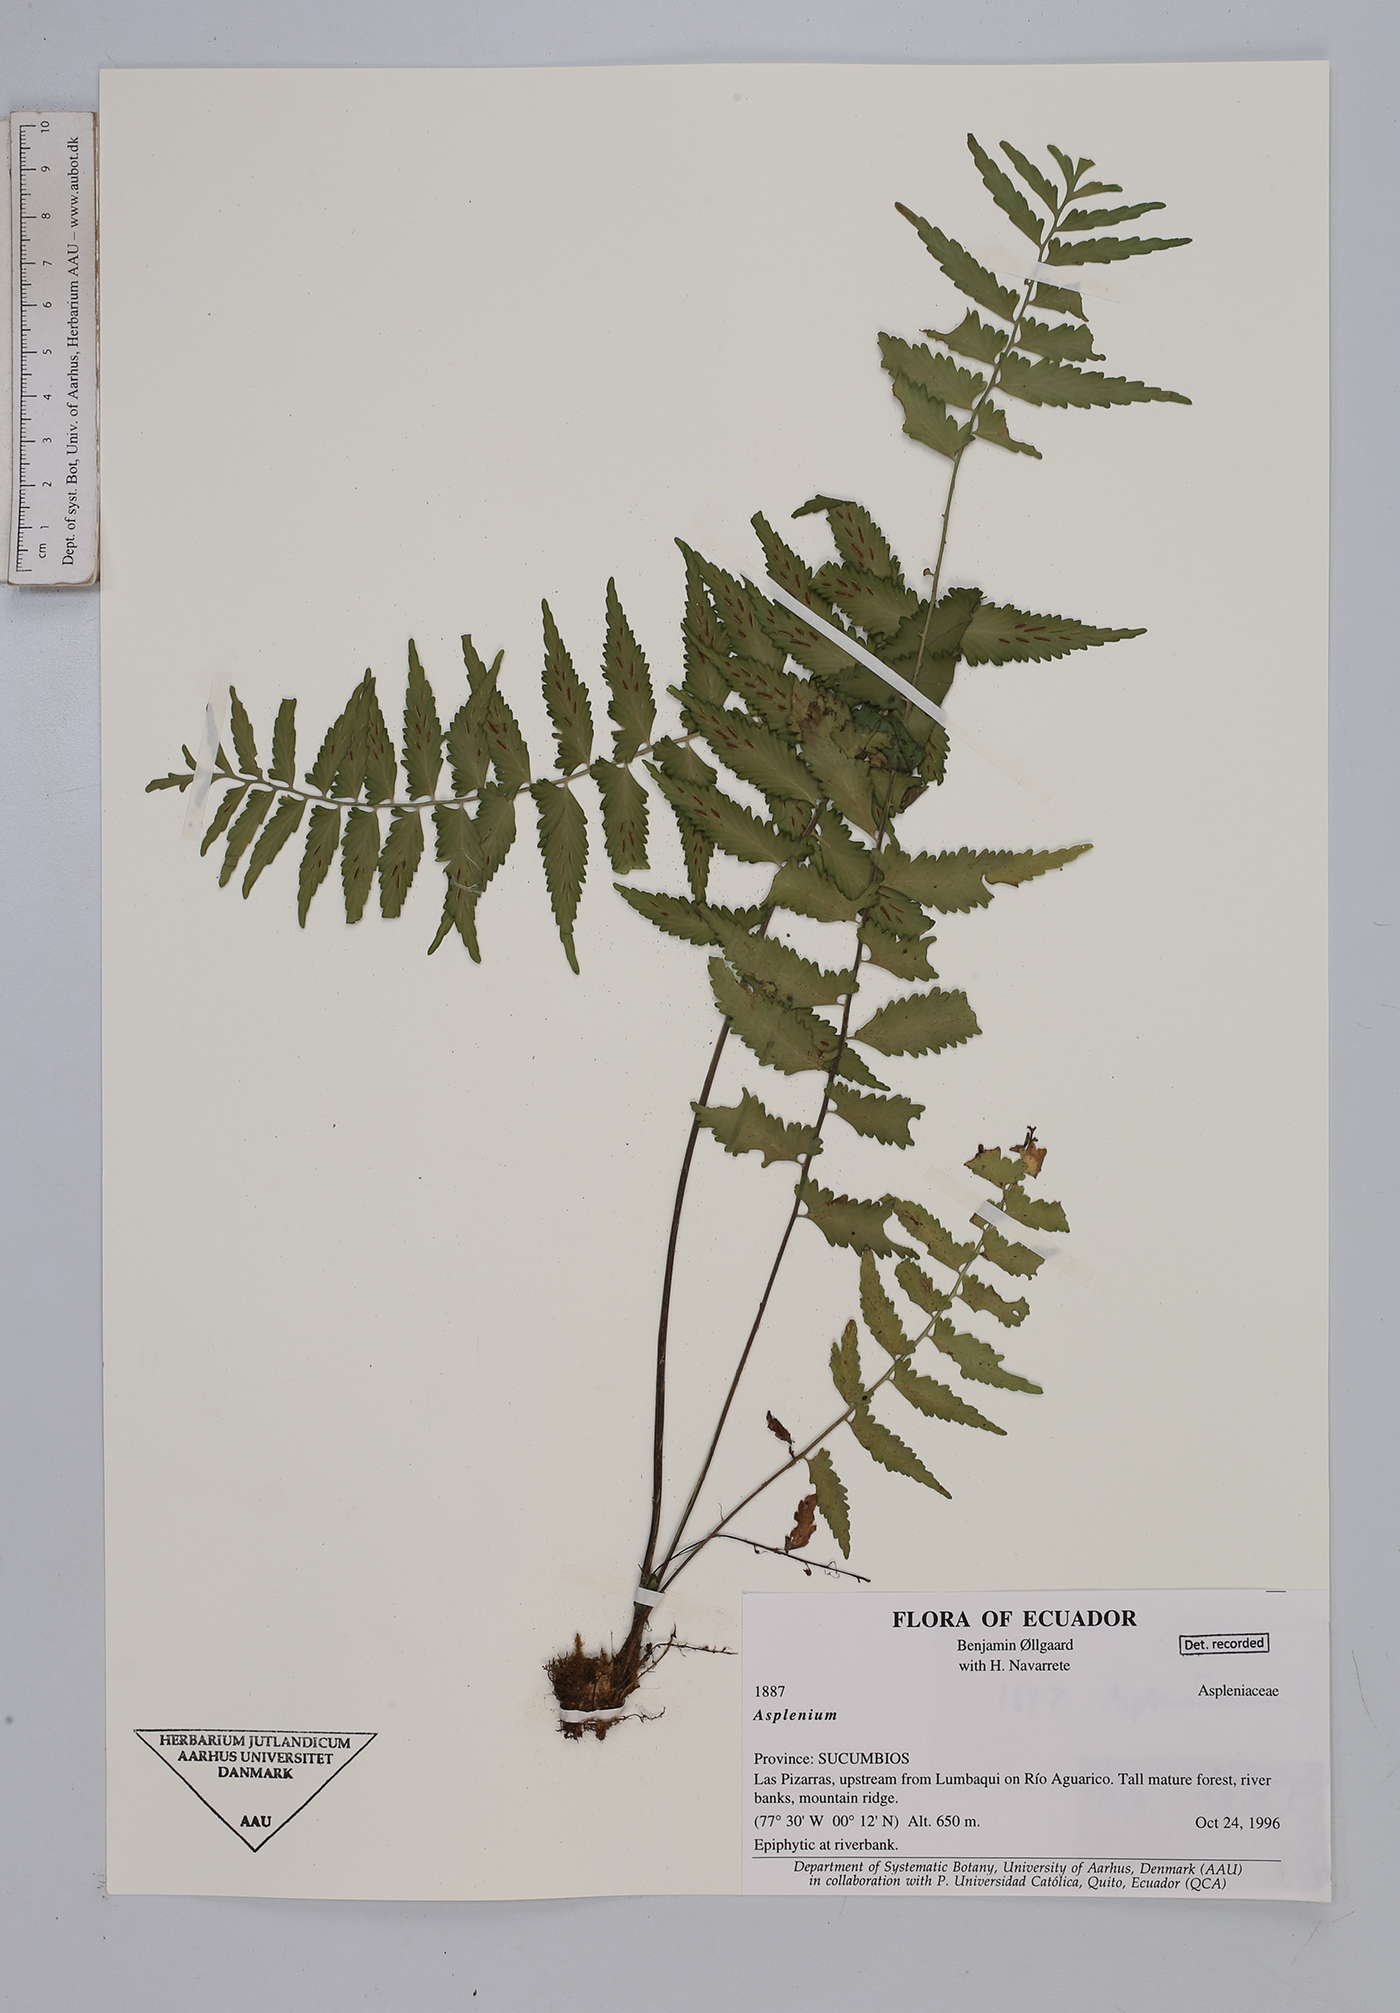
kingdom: Plantae
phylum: Tracheophyta
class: Polypodiopsida
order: Polypodiales
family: Aspleniaceae
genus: Asplenium
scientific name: Asplenium
